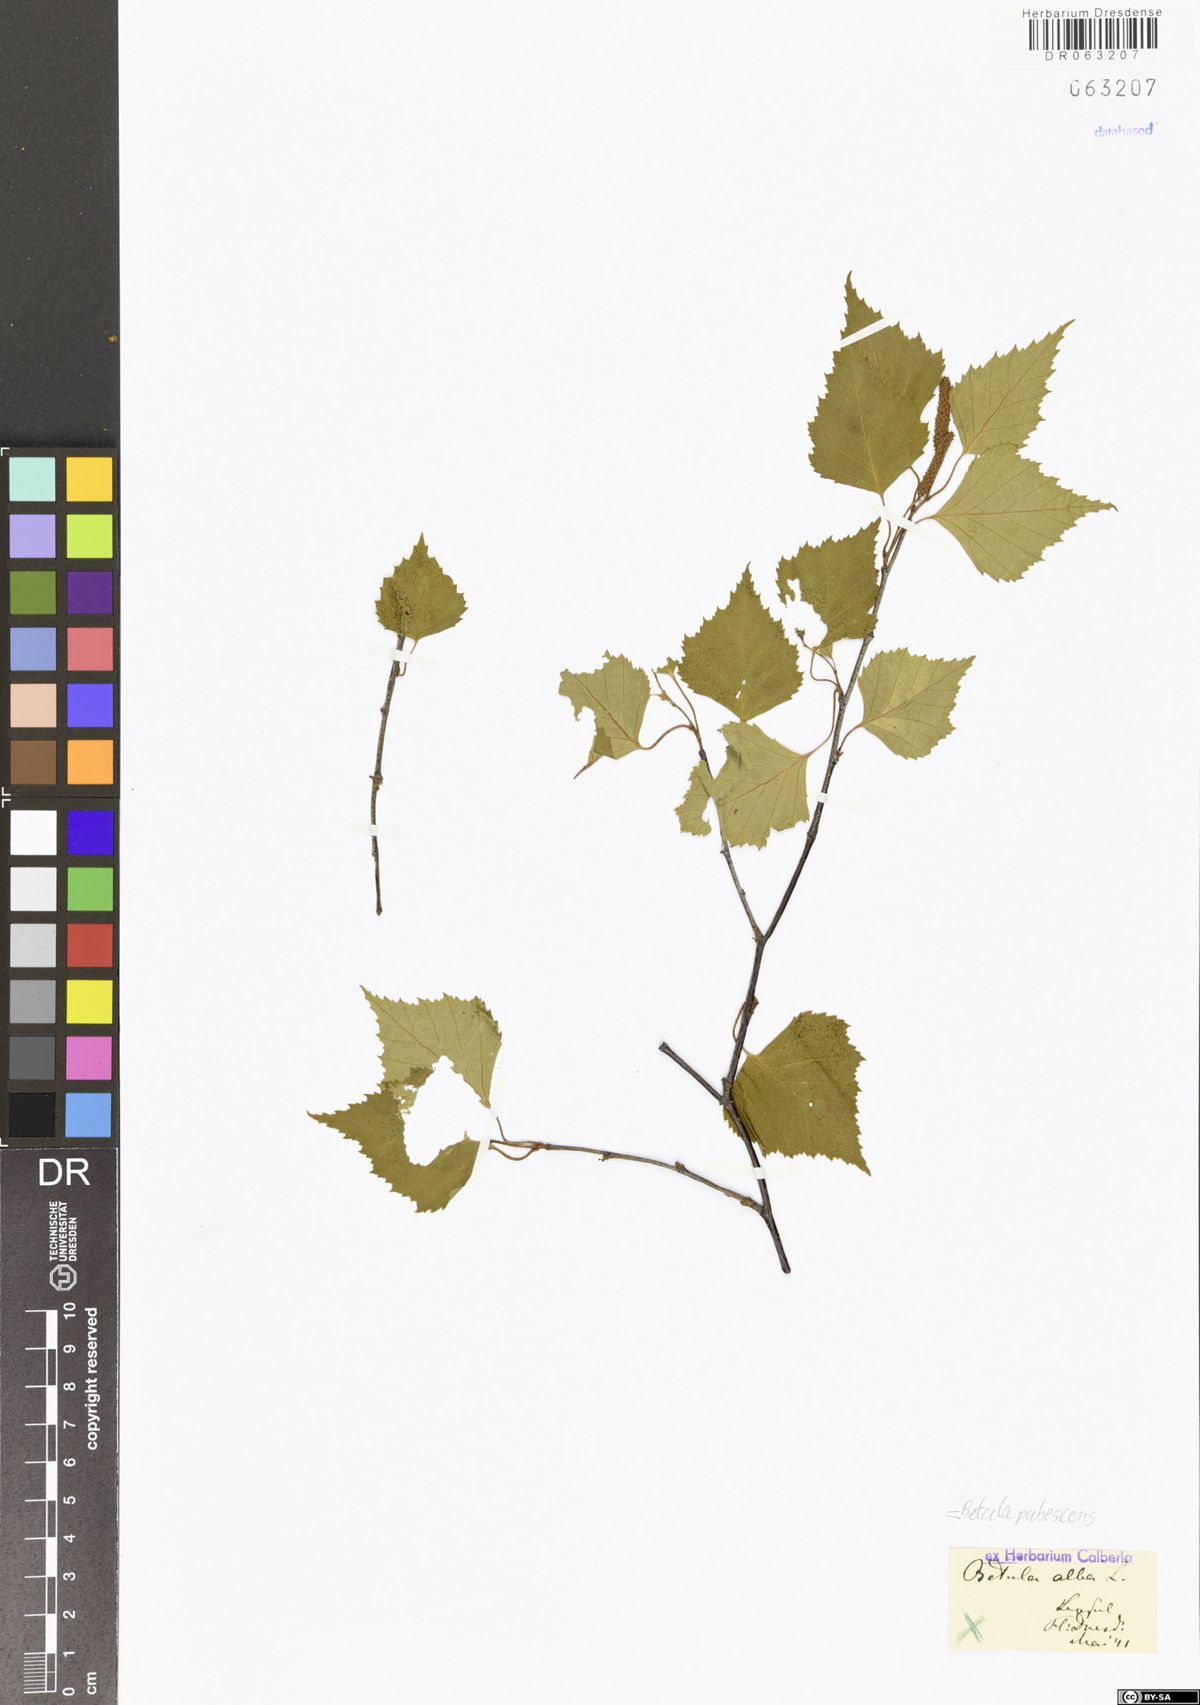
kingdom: Plantae
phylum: Tracheophyta
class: Magnoliopsida
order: Fagales
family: Betulaceae
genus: Betula
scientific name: Betula pendula
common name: Silver birch
